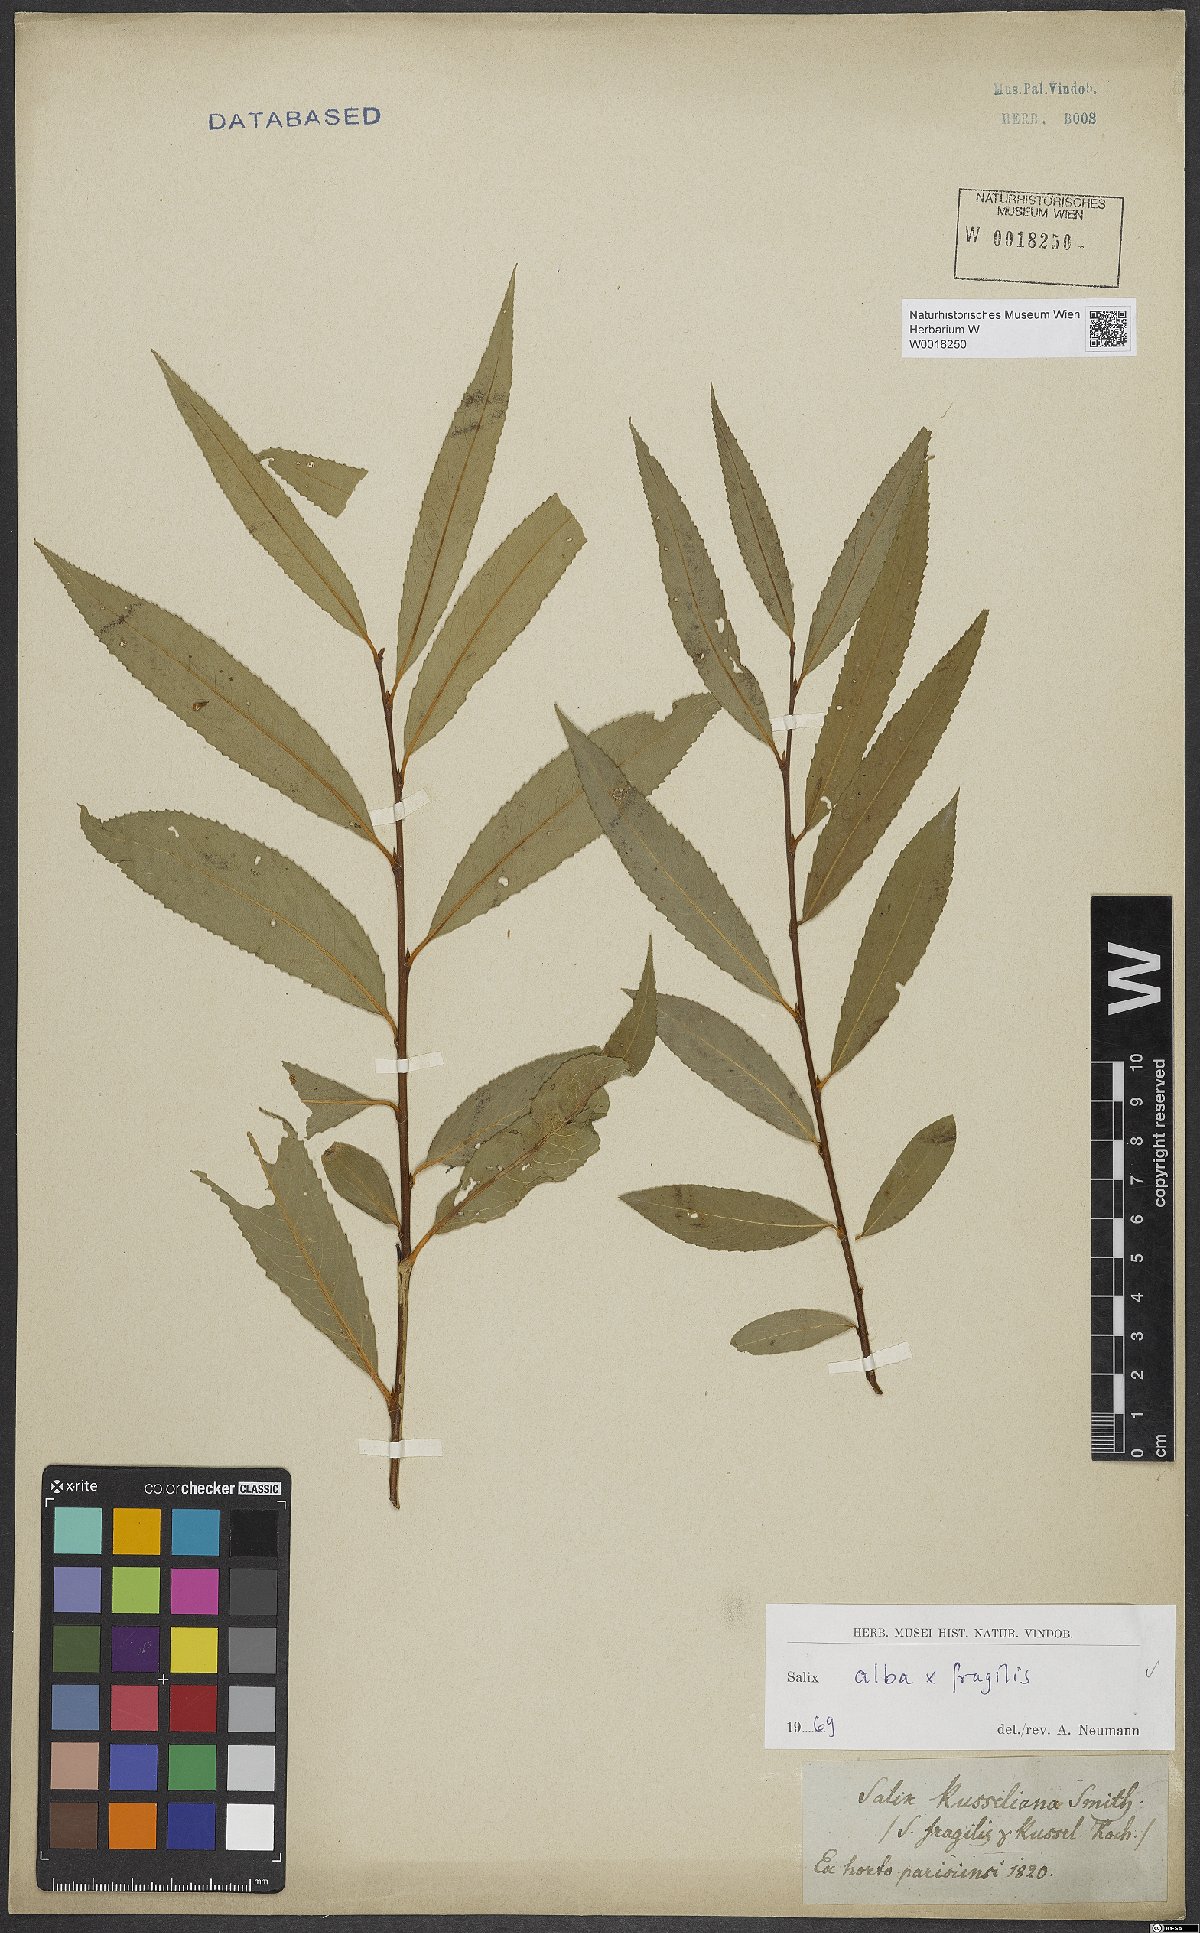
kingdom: Plantae
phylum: Tracheophyta
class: Magnoliopsida
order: Malpighiales
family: Salicaceae
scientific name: Salicaceae
